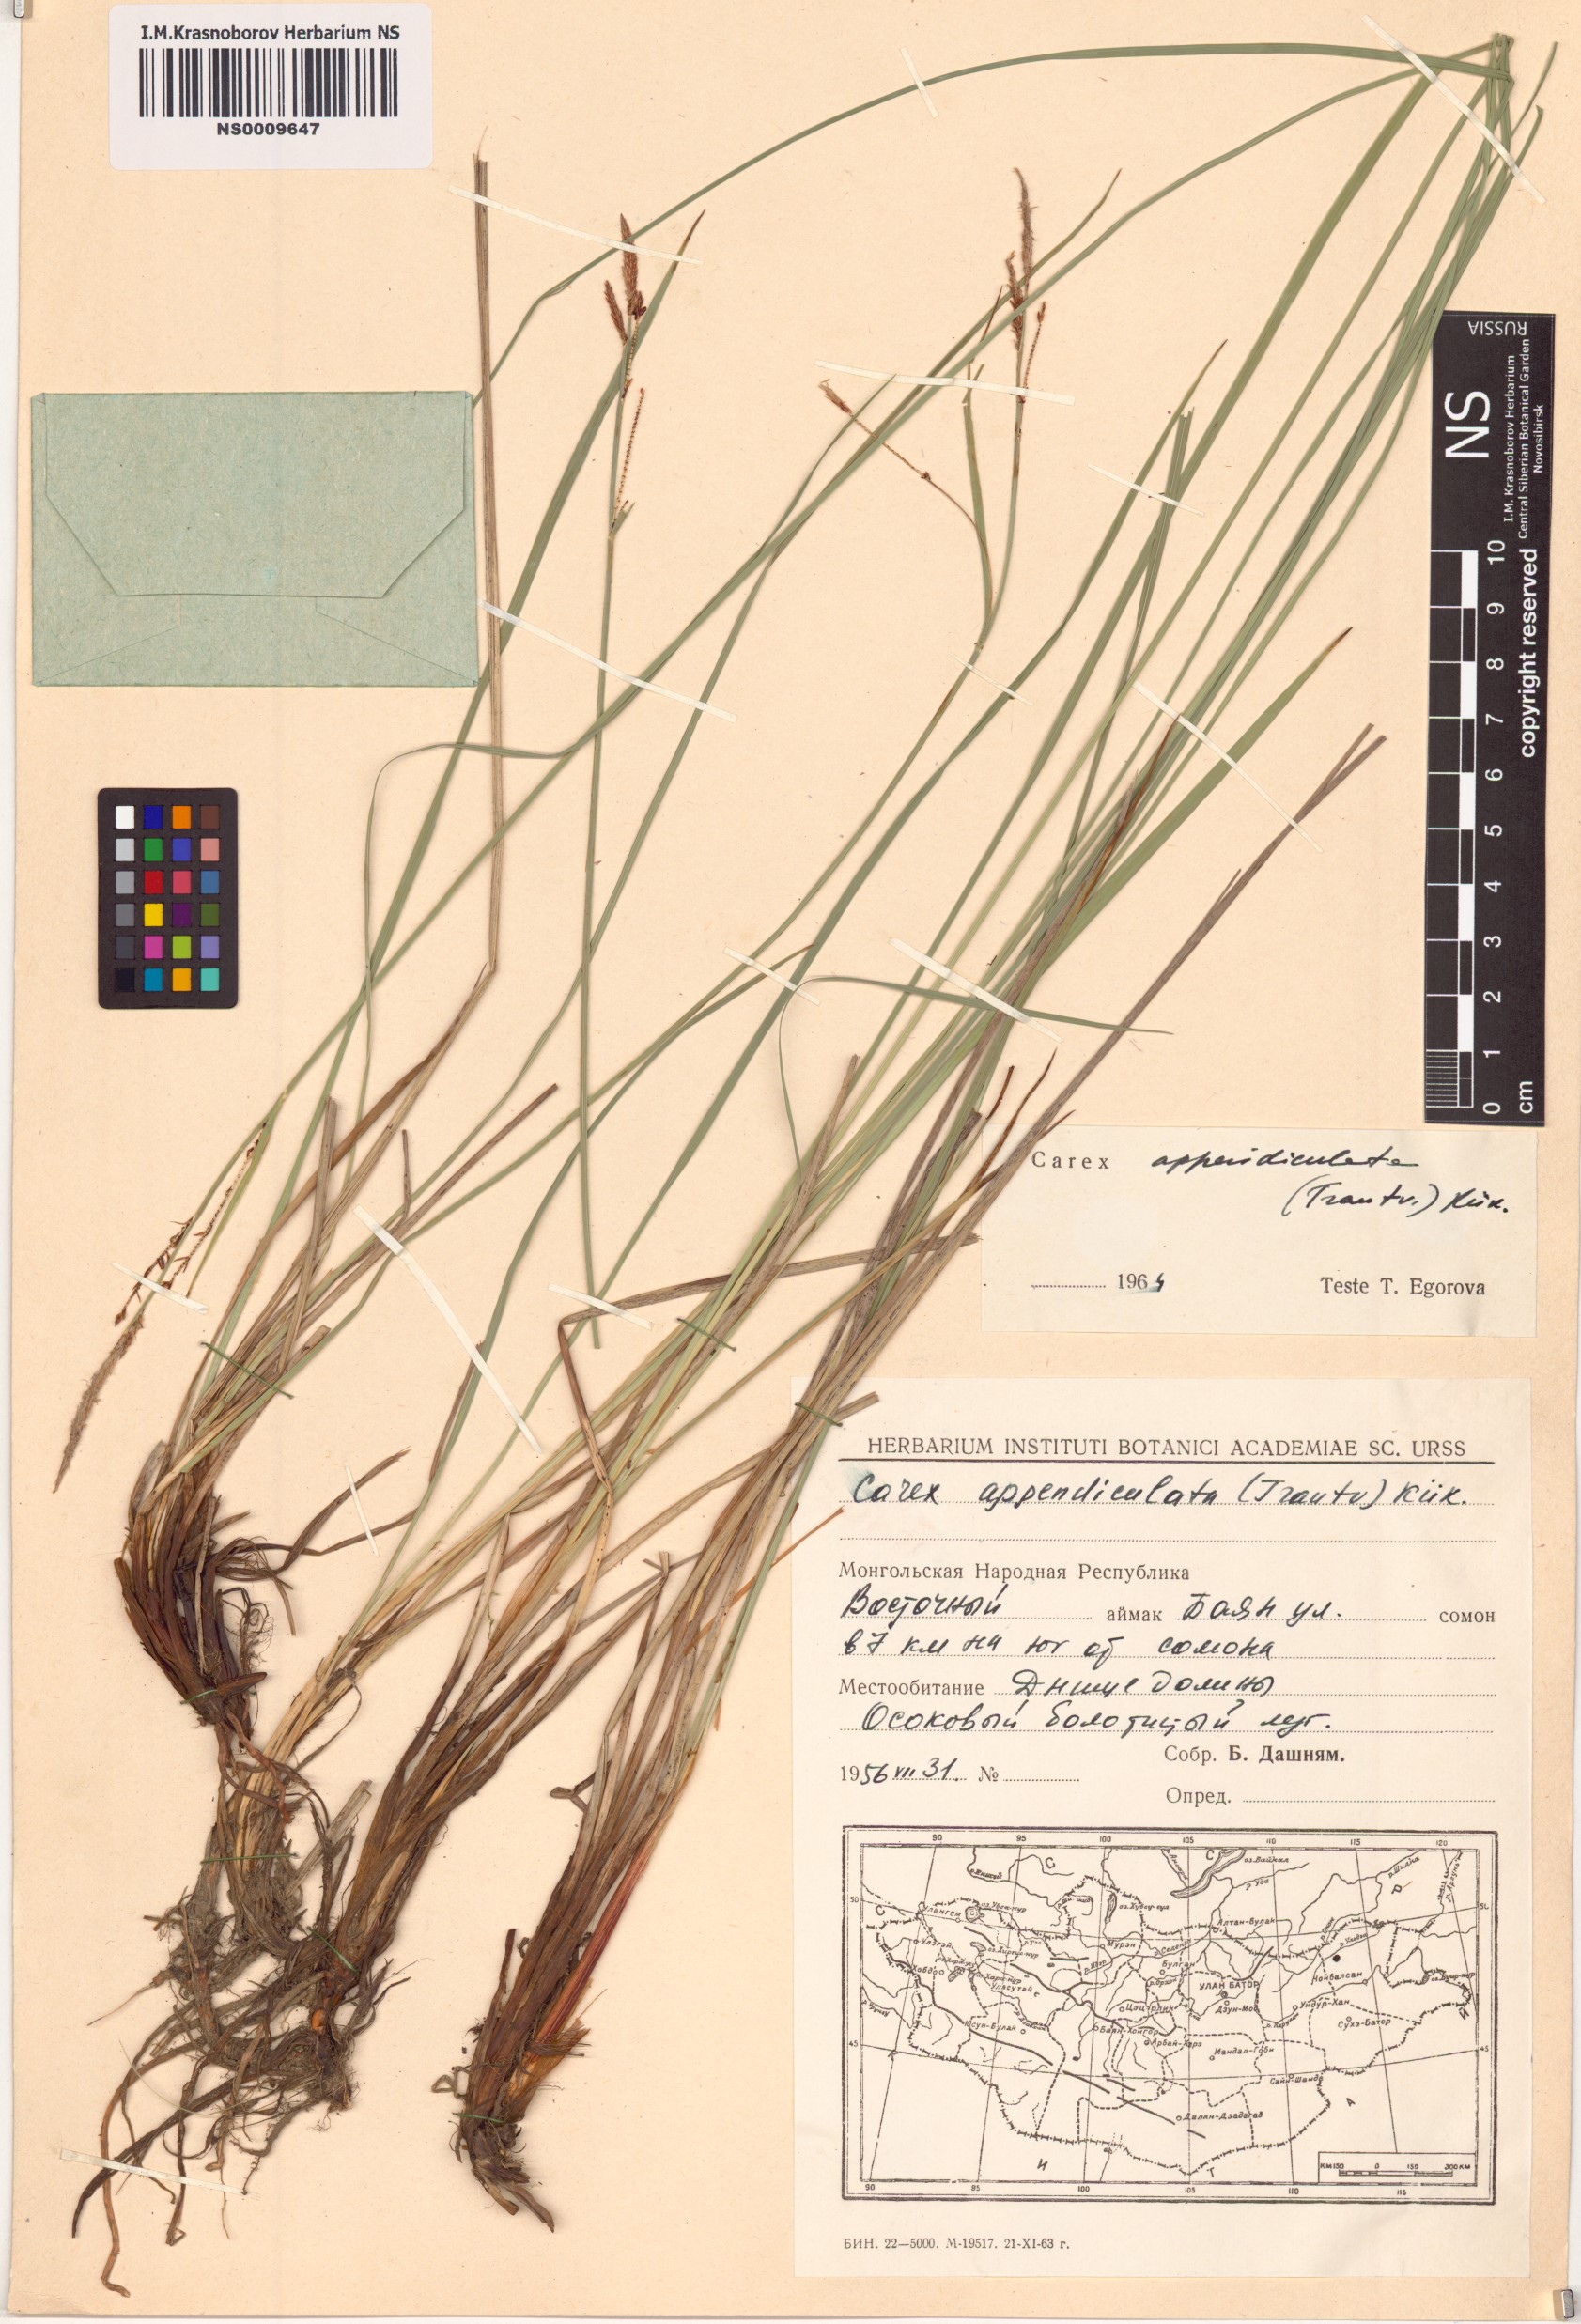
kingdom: Plantae
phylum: Tracheophyta
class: Liliopsida
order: Poales
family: Cyperaceae
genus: Carex
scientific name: Carex appendiculata
